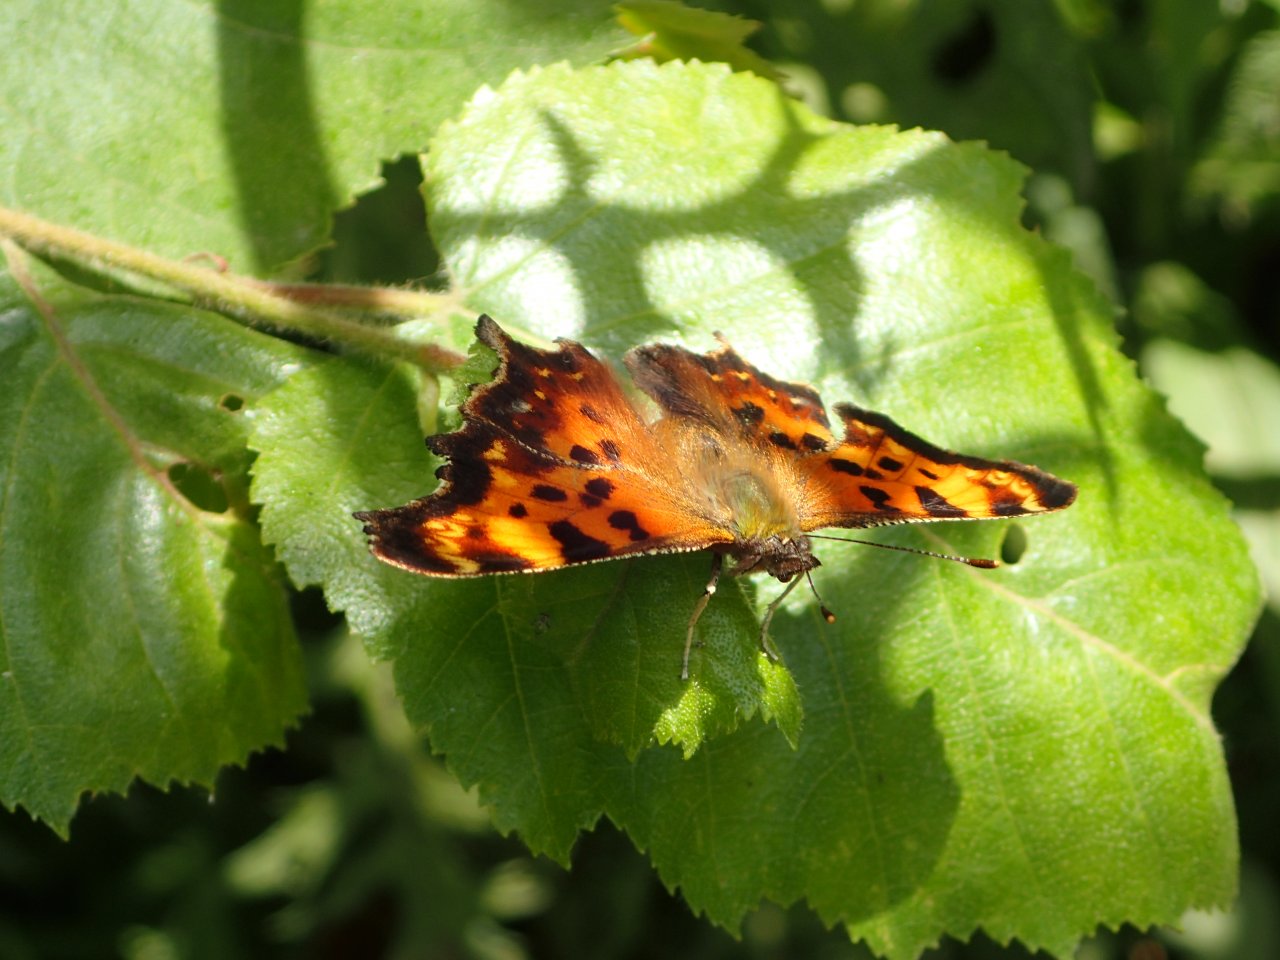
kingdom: Animalia
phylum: Arthropoda
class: Insecta
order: Lepidoptera
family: Nymphalidae
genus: Polygonia
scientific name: Polygonia faunus
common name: Green Comma
